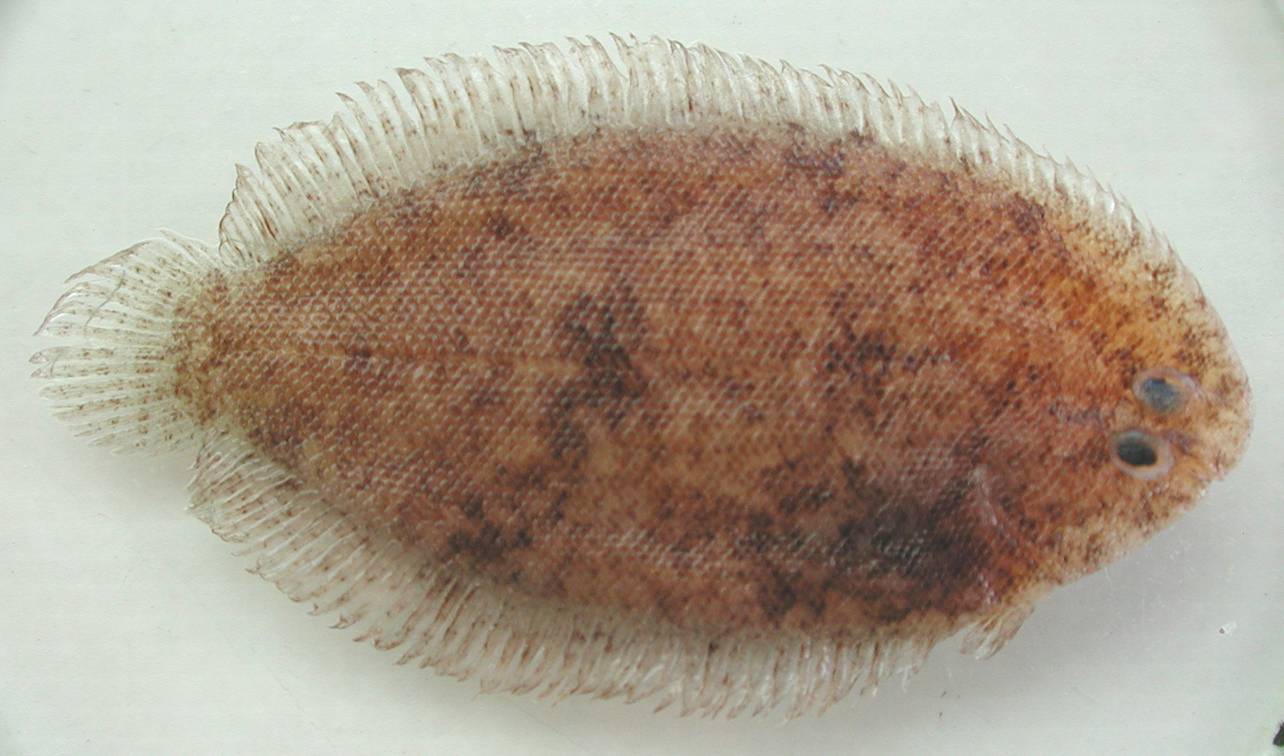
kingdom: Animalia
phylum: Chordata
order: Pleuronectiformes
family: Soleidae
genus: Aseraggodes
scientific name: Aseraggodes jenny
